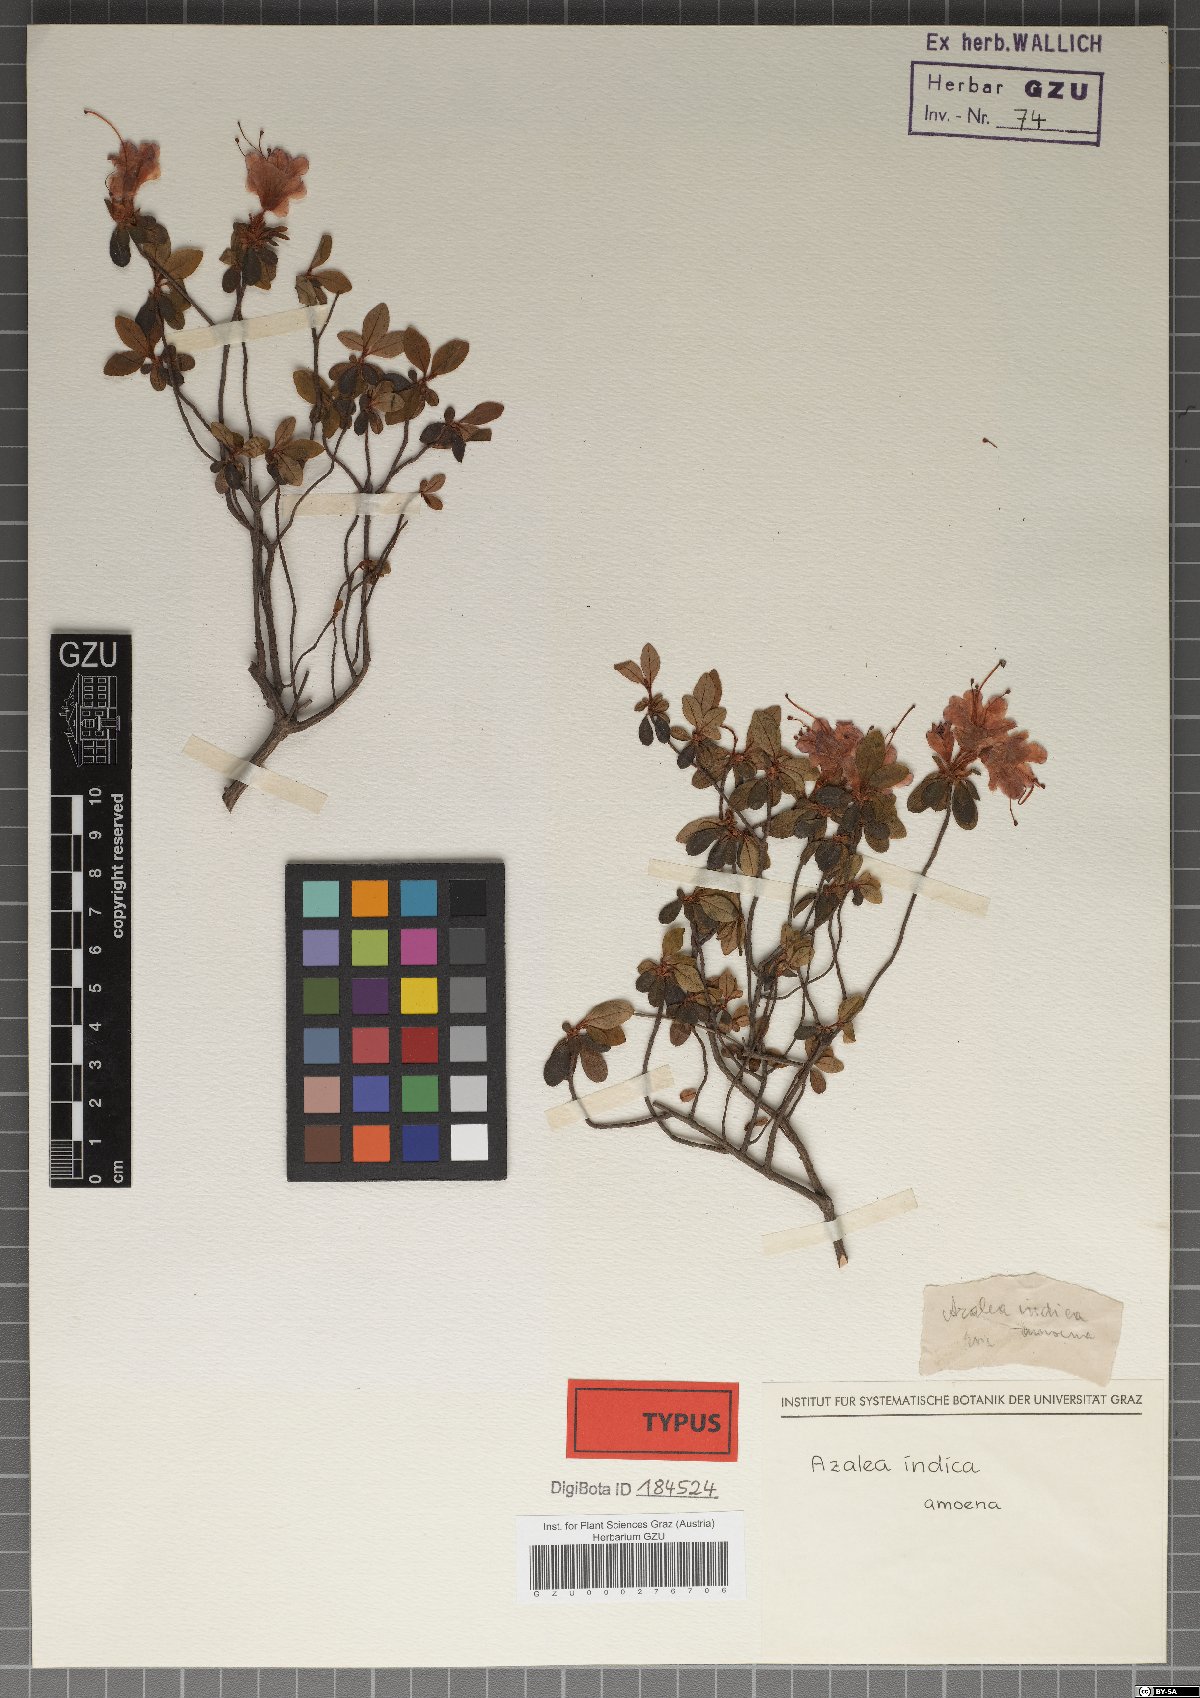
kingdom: Plantae
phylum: Tracheophyta
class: Magnoliopsida
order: Ericales
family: Ericaceae
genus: Rhododendron
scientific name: Rhododendron
